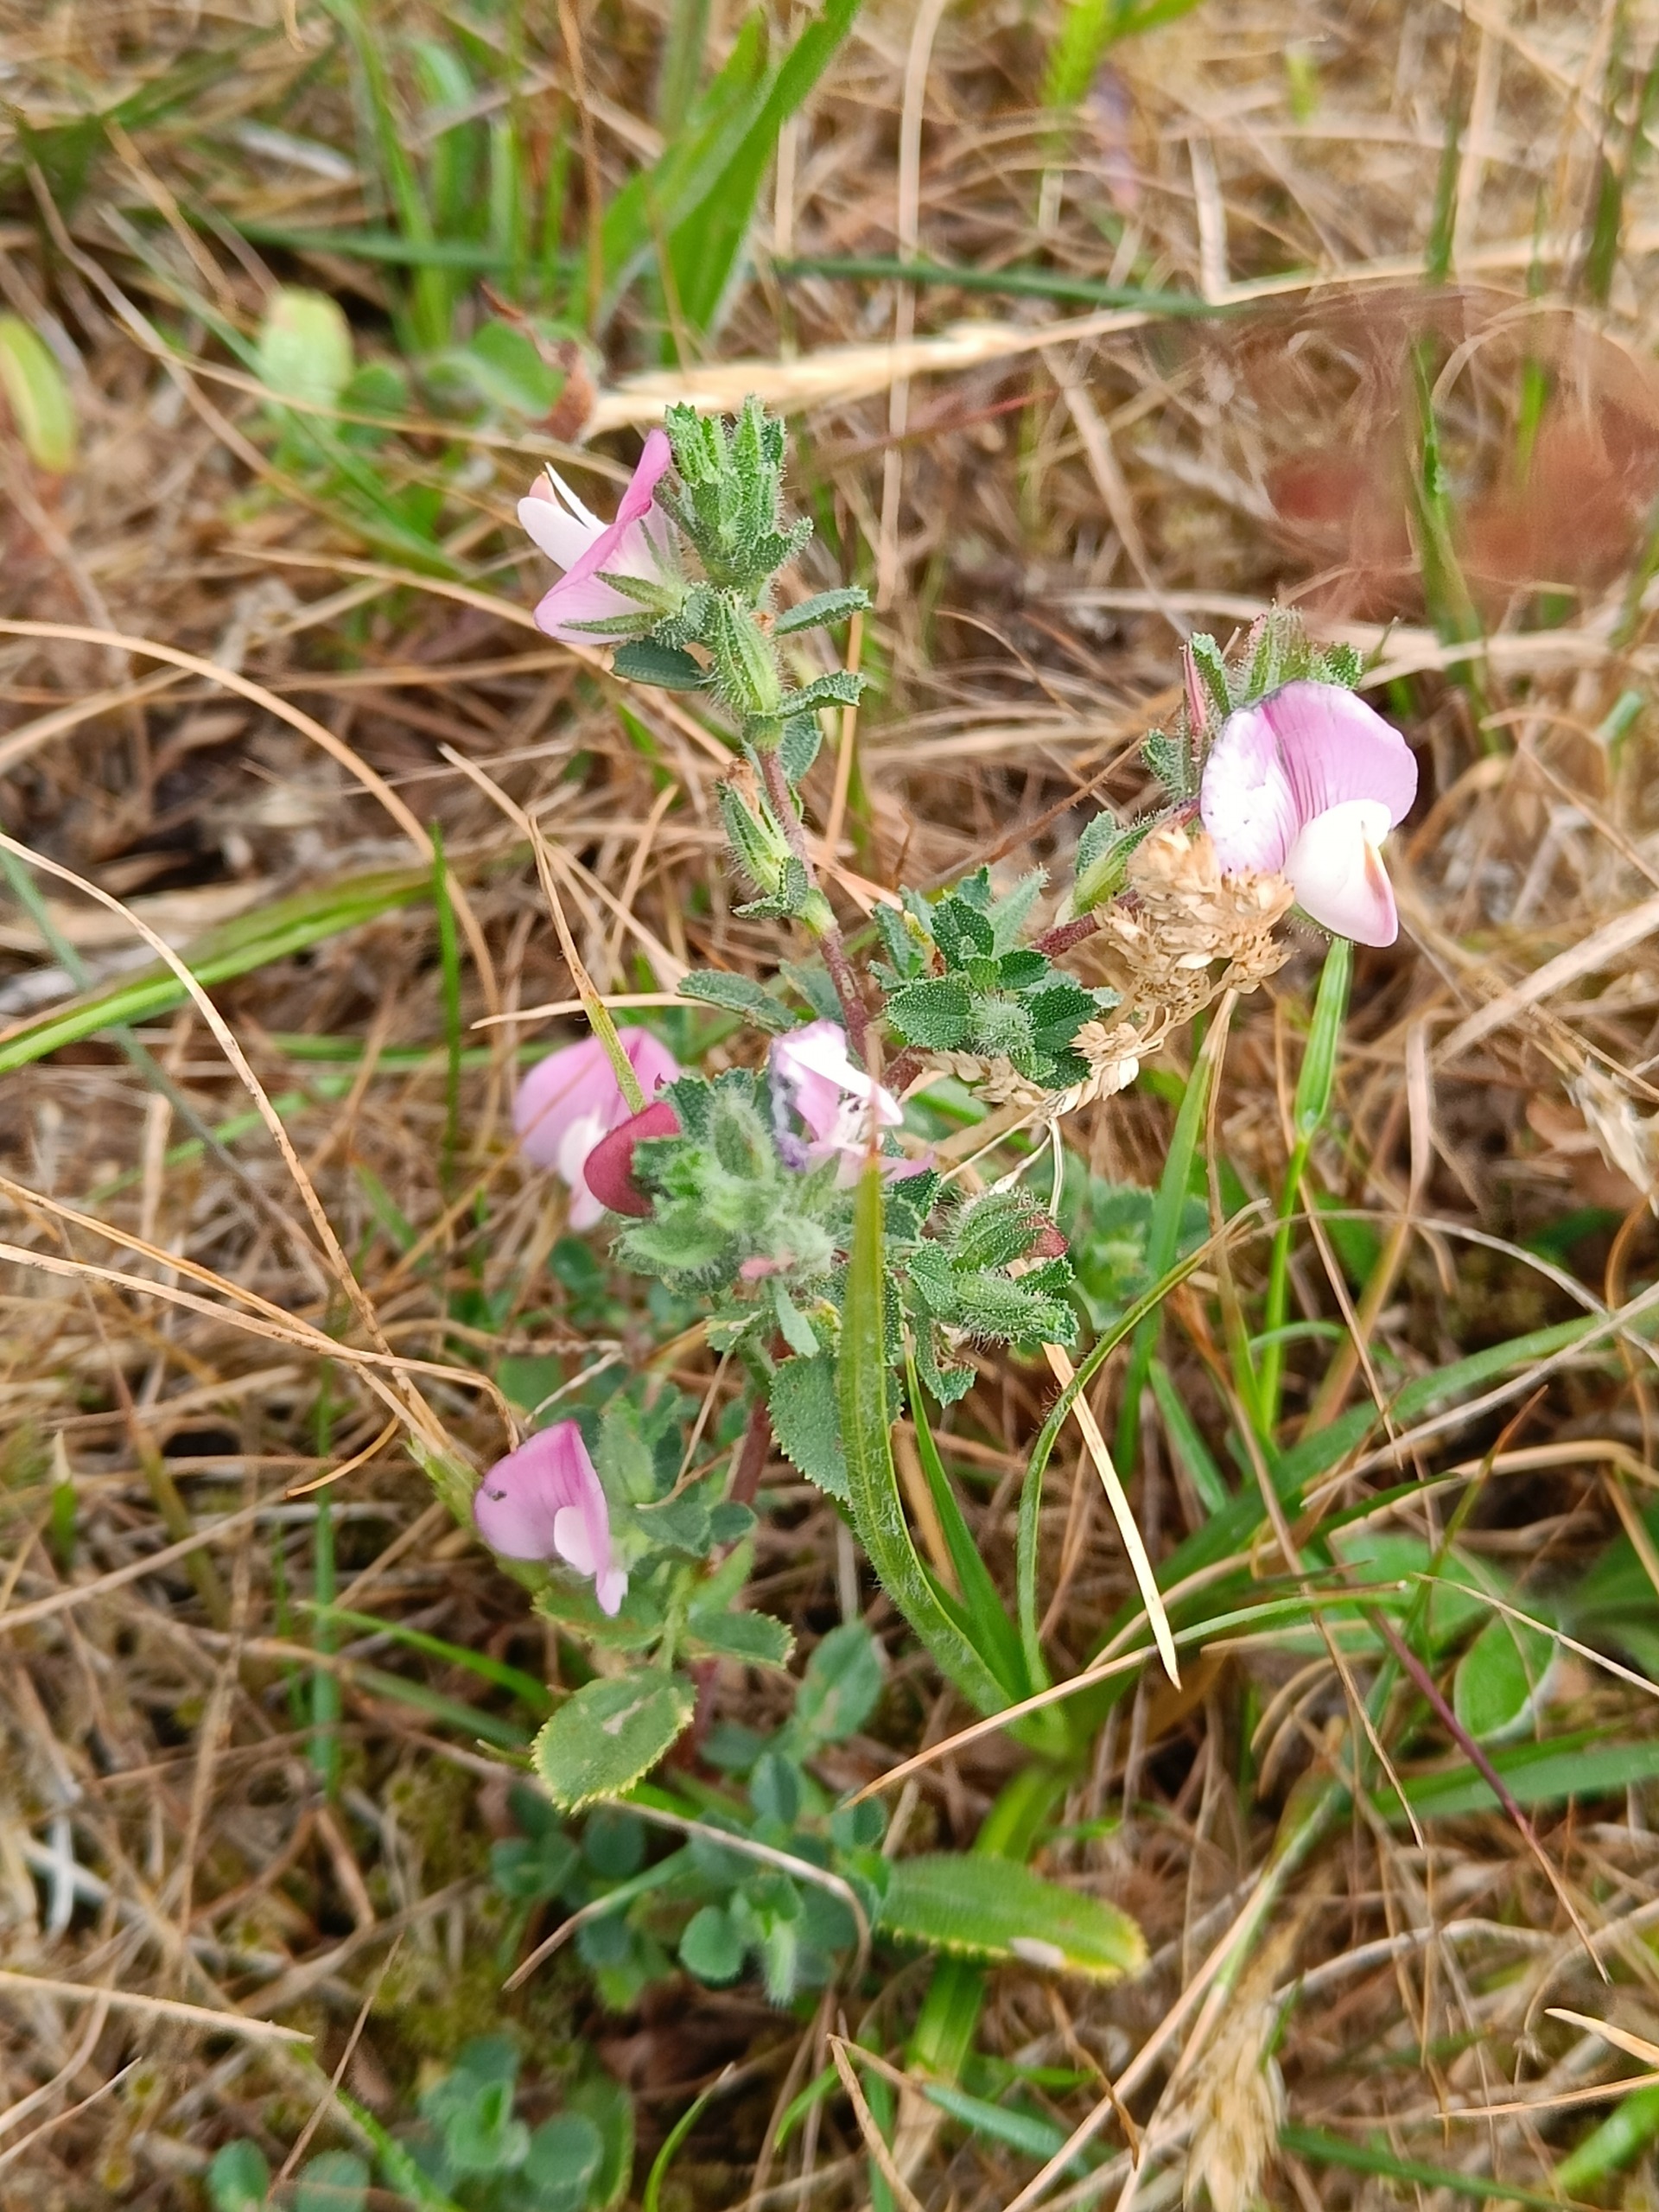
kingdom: Plantae
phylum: Tracheophyta
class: Magnoliopsida
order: Fabales
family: Fabaceae
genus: Ononis
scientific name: Ononis spinosa
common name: Mark-krageklo
